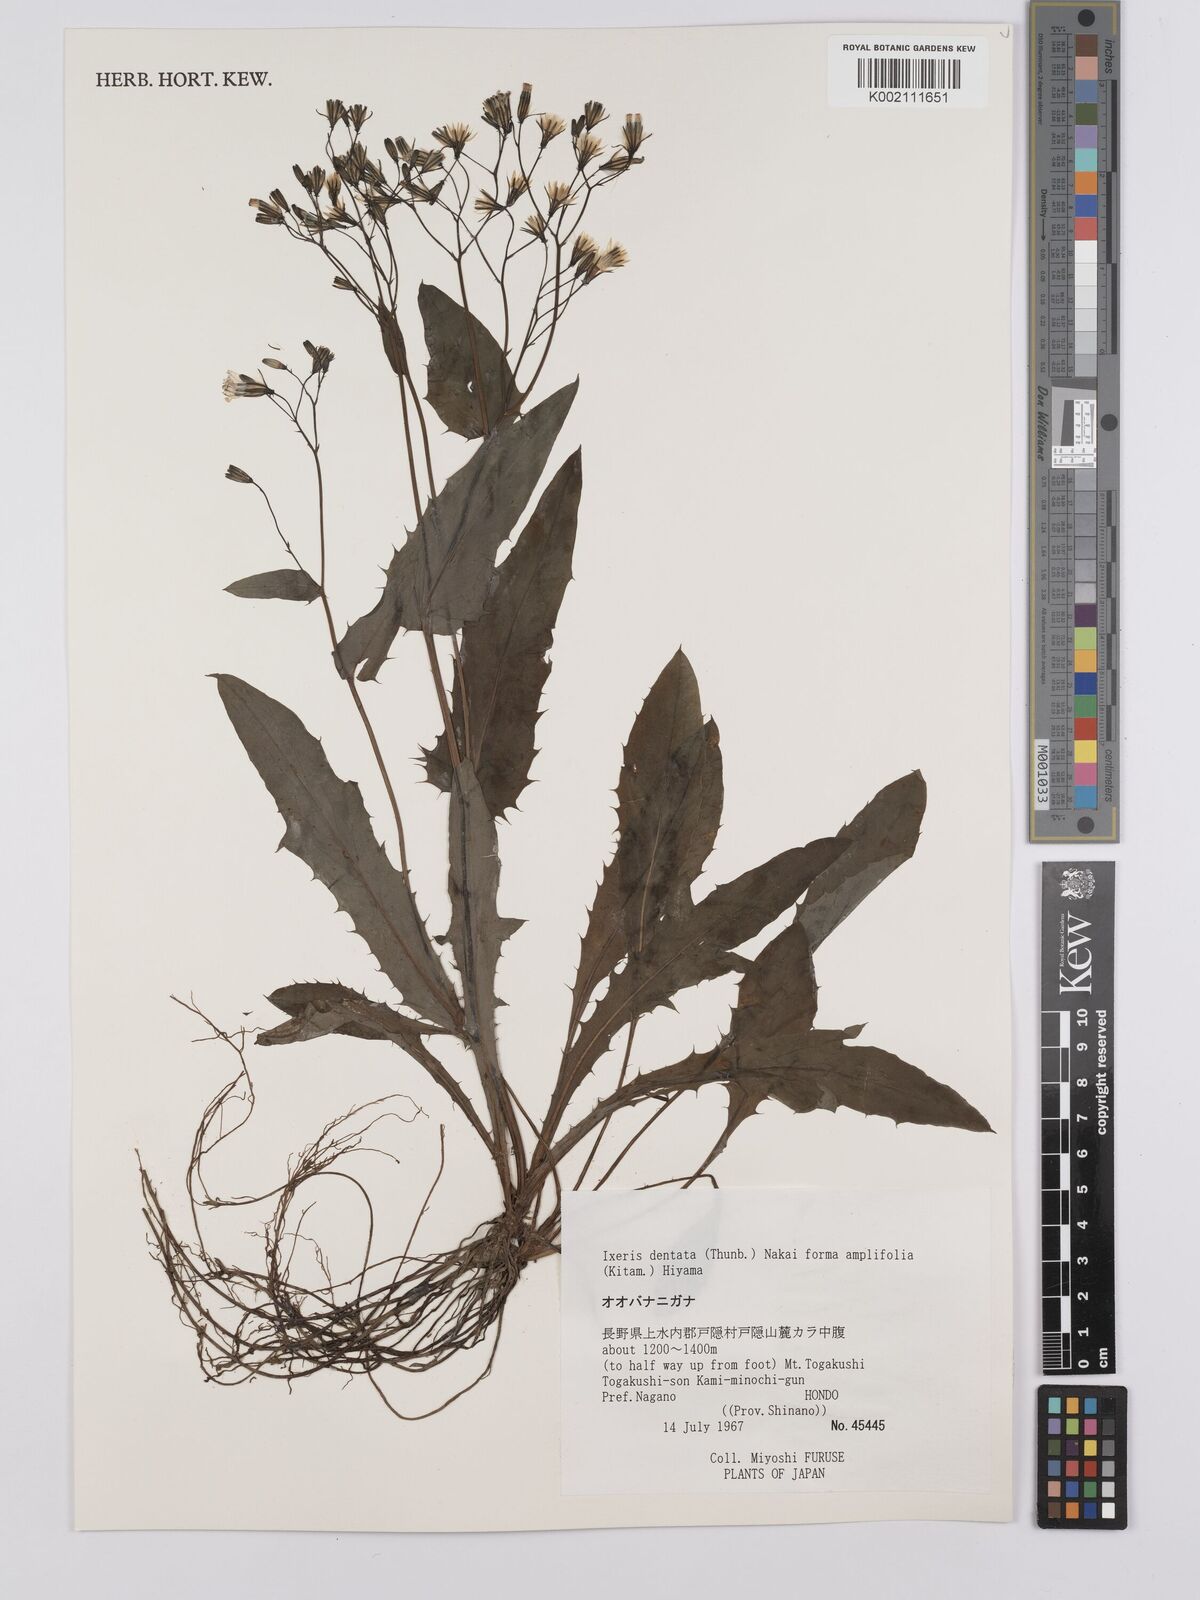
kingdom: Plantae
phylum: Tracheophyta
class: Magnoliopsida
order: Asterales
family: Asteraceae
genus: Ixeridium
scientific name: Ixeridium dentatum
